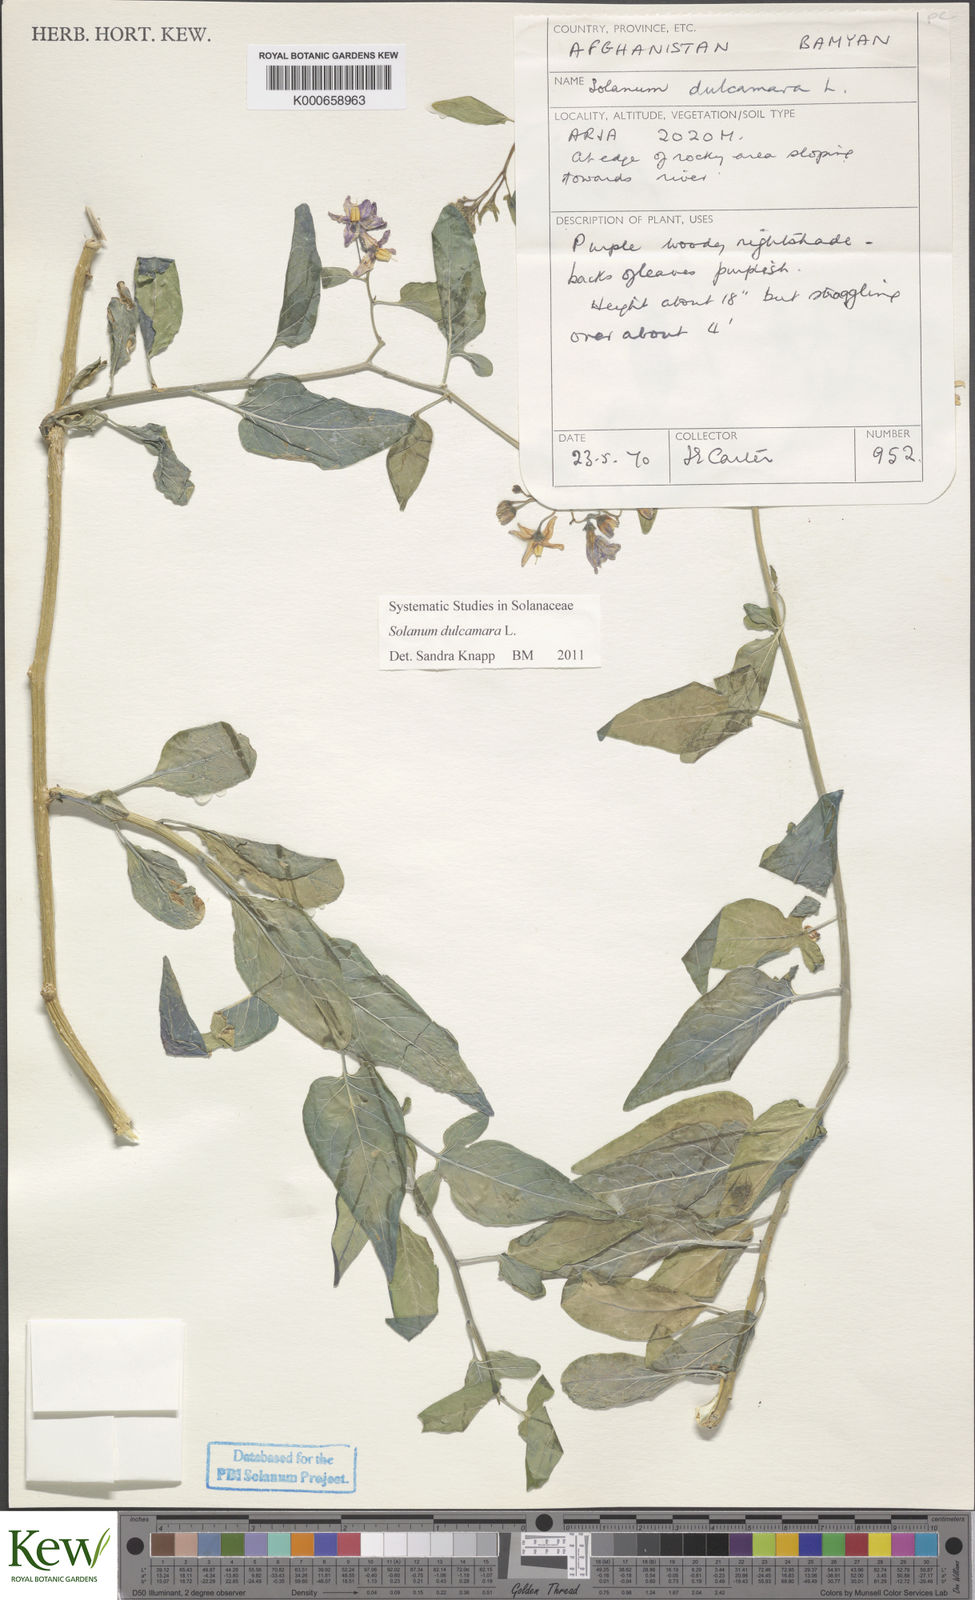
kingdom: Plantae
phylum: Tracheophyta
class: Magnoliopsida
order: Solanales
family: Solanaceae
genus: Solanum
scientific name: Solanum dulcamara
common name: Climbing nightshade
